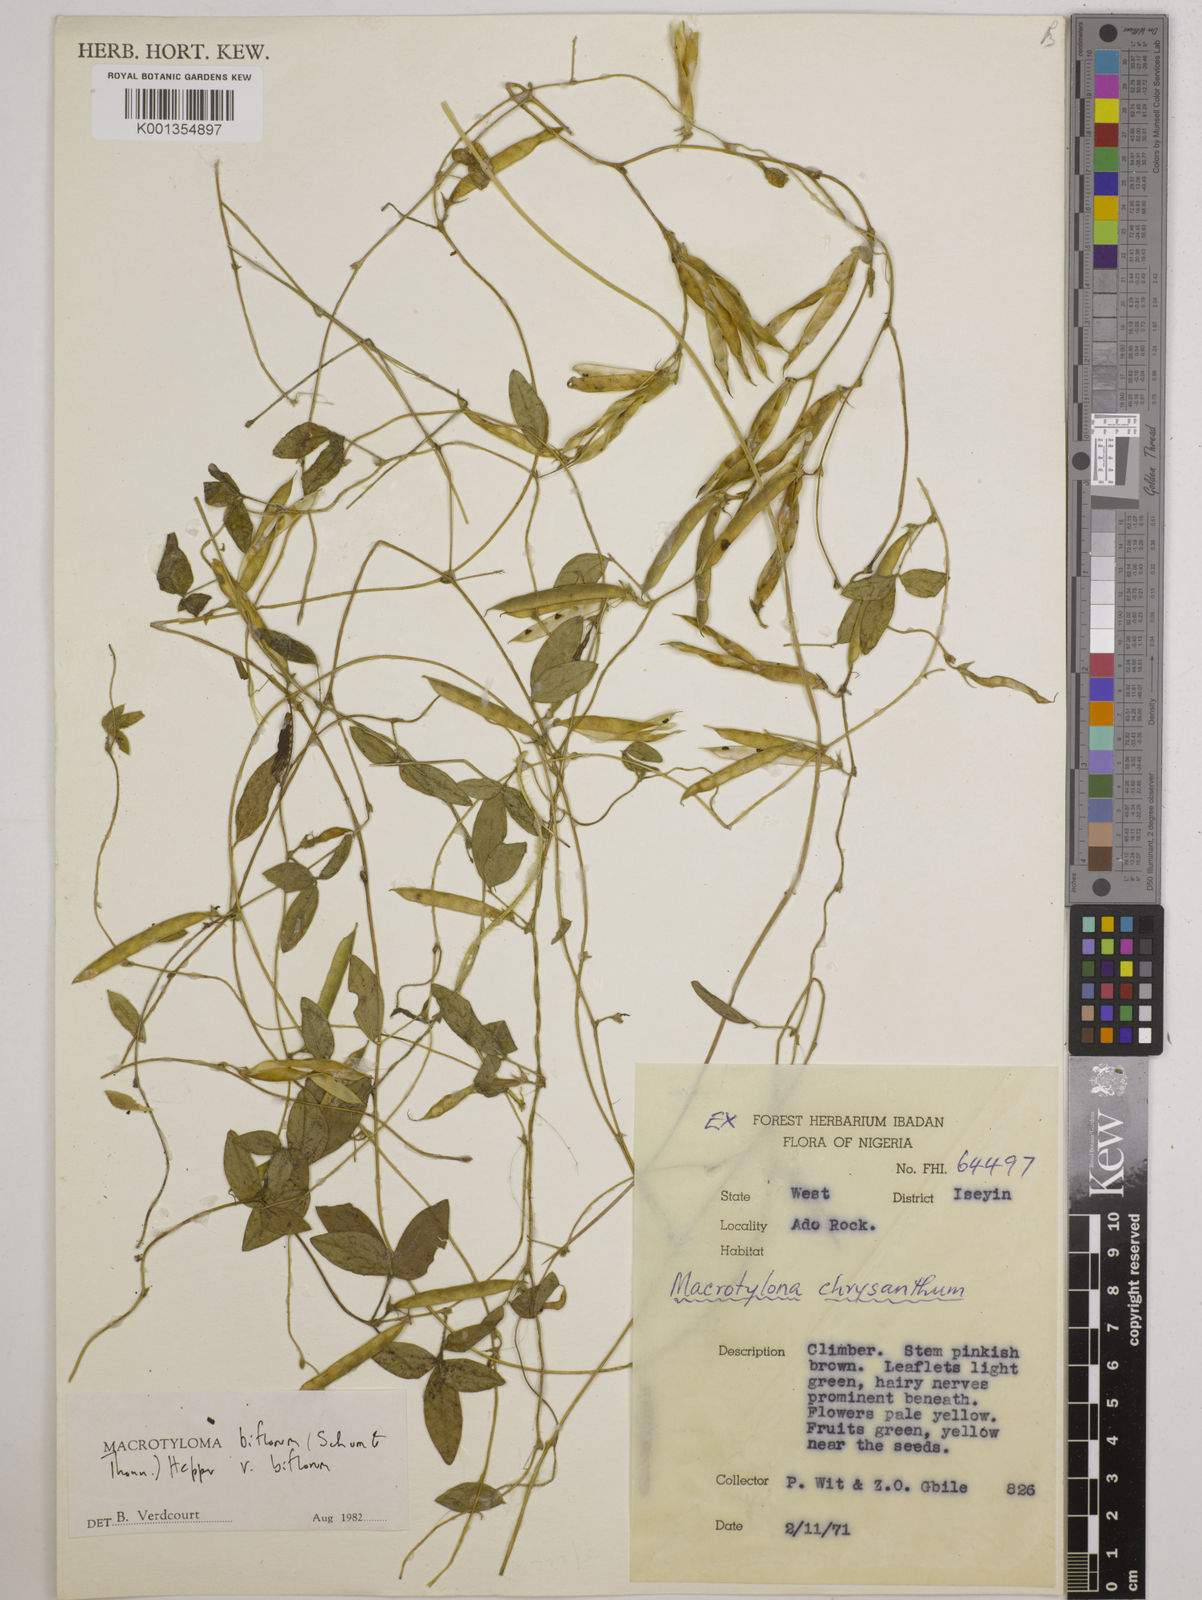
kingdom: Plantae
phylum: Tracheophyta
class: Magnoliopsida
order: Fabales
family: Fabaceae
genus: Macrotyloma
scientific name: Macrotyloma biflorum
